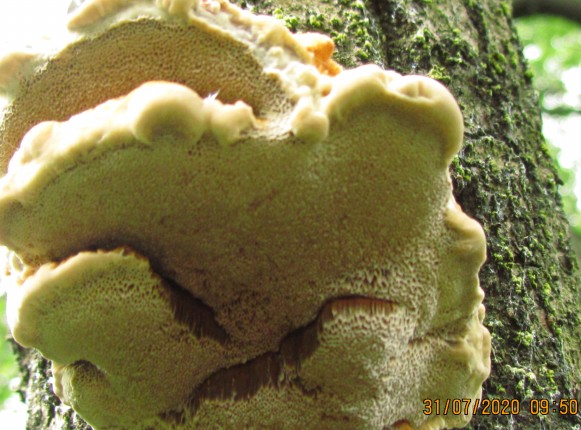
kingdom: Fungi
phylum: Basidiomycota
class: Agaricomycetes
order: Hymenochaetales
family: Hymenochaetaceae
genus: Inocutis
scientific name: Inocutis rheades
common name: ræve-spejlporesvamp
